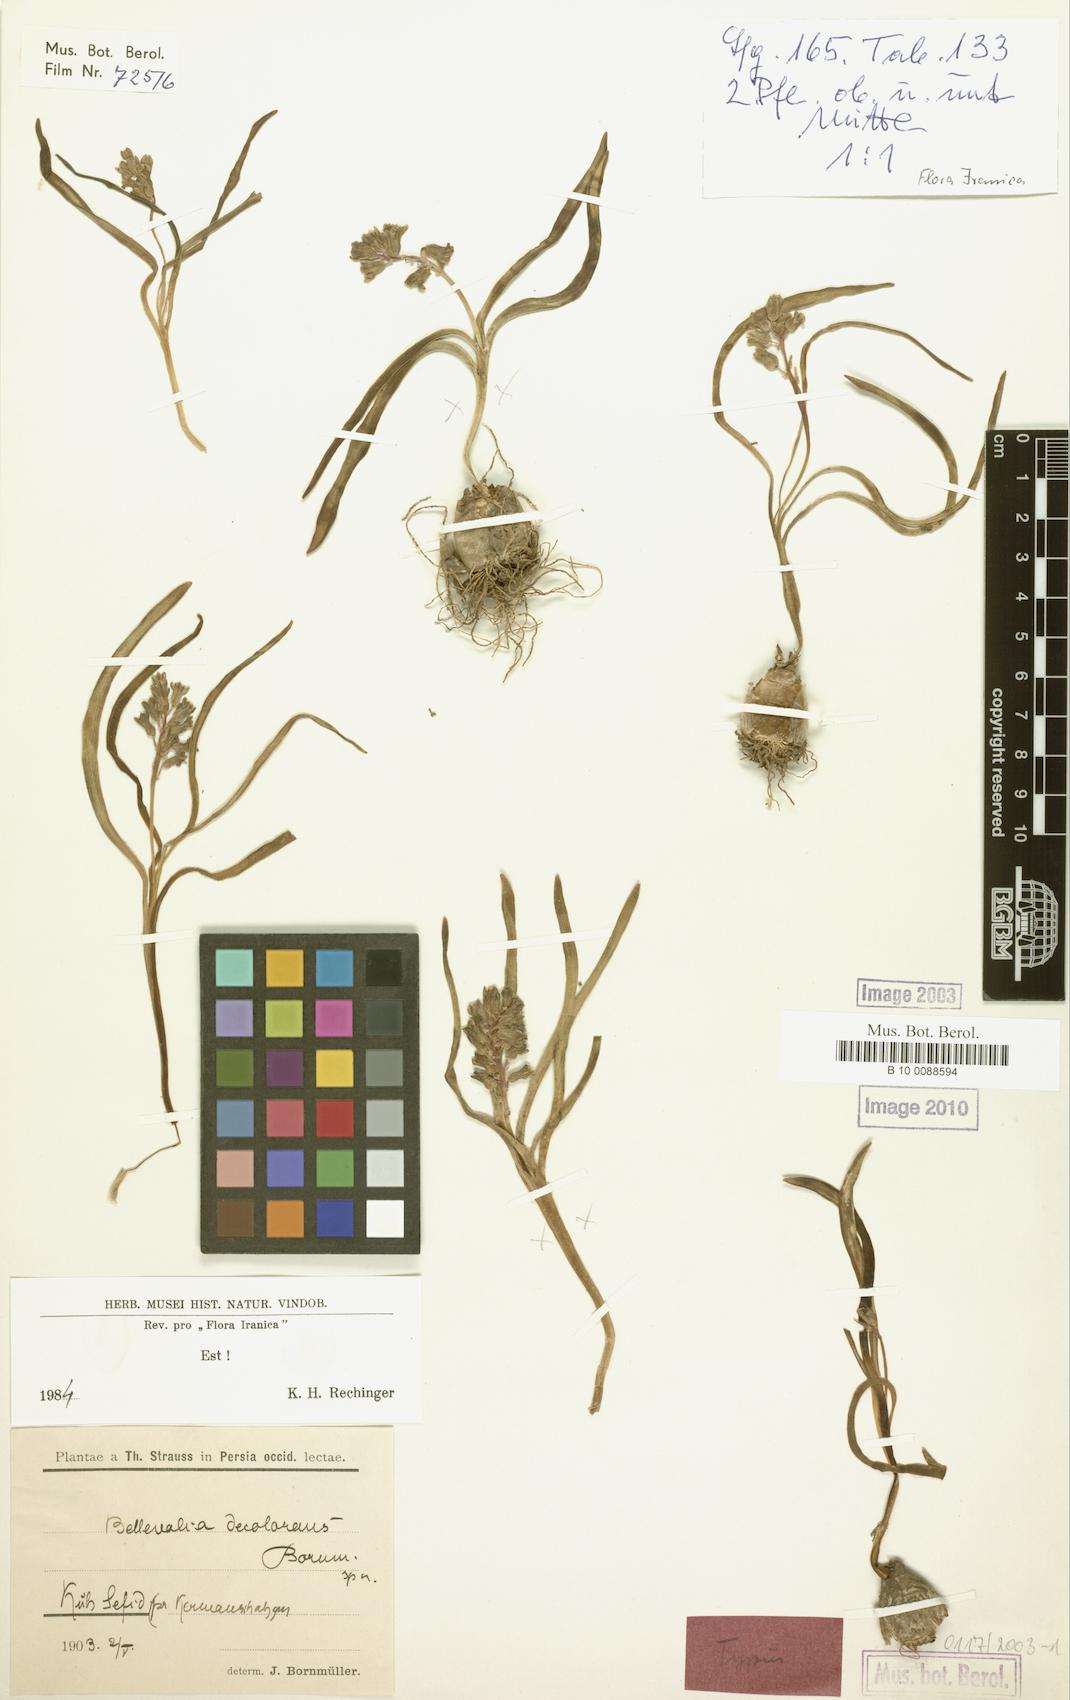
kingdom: Plantae
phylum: Tracheophyta
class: Liliopsida
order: Asparagales
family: Asparagaceae
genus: Bellevalia
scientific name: Bellevalia decolorans
